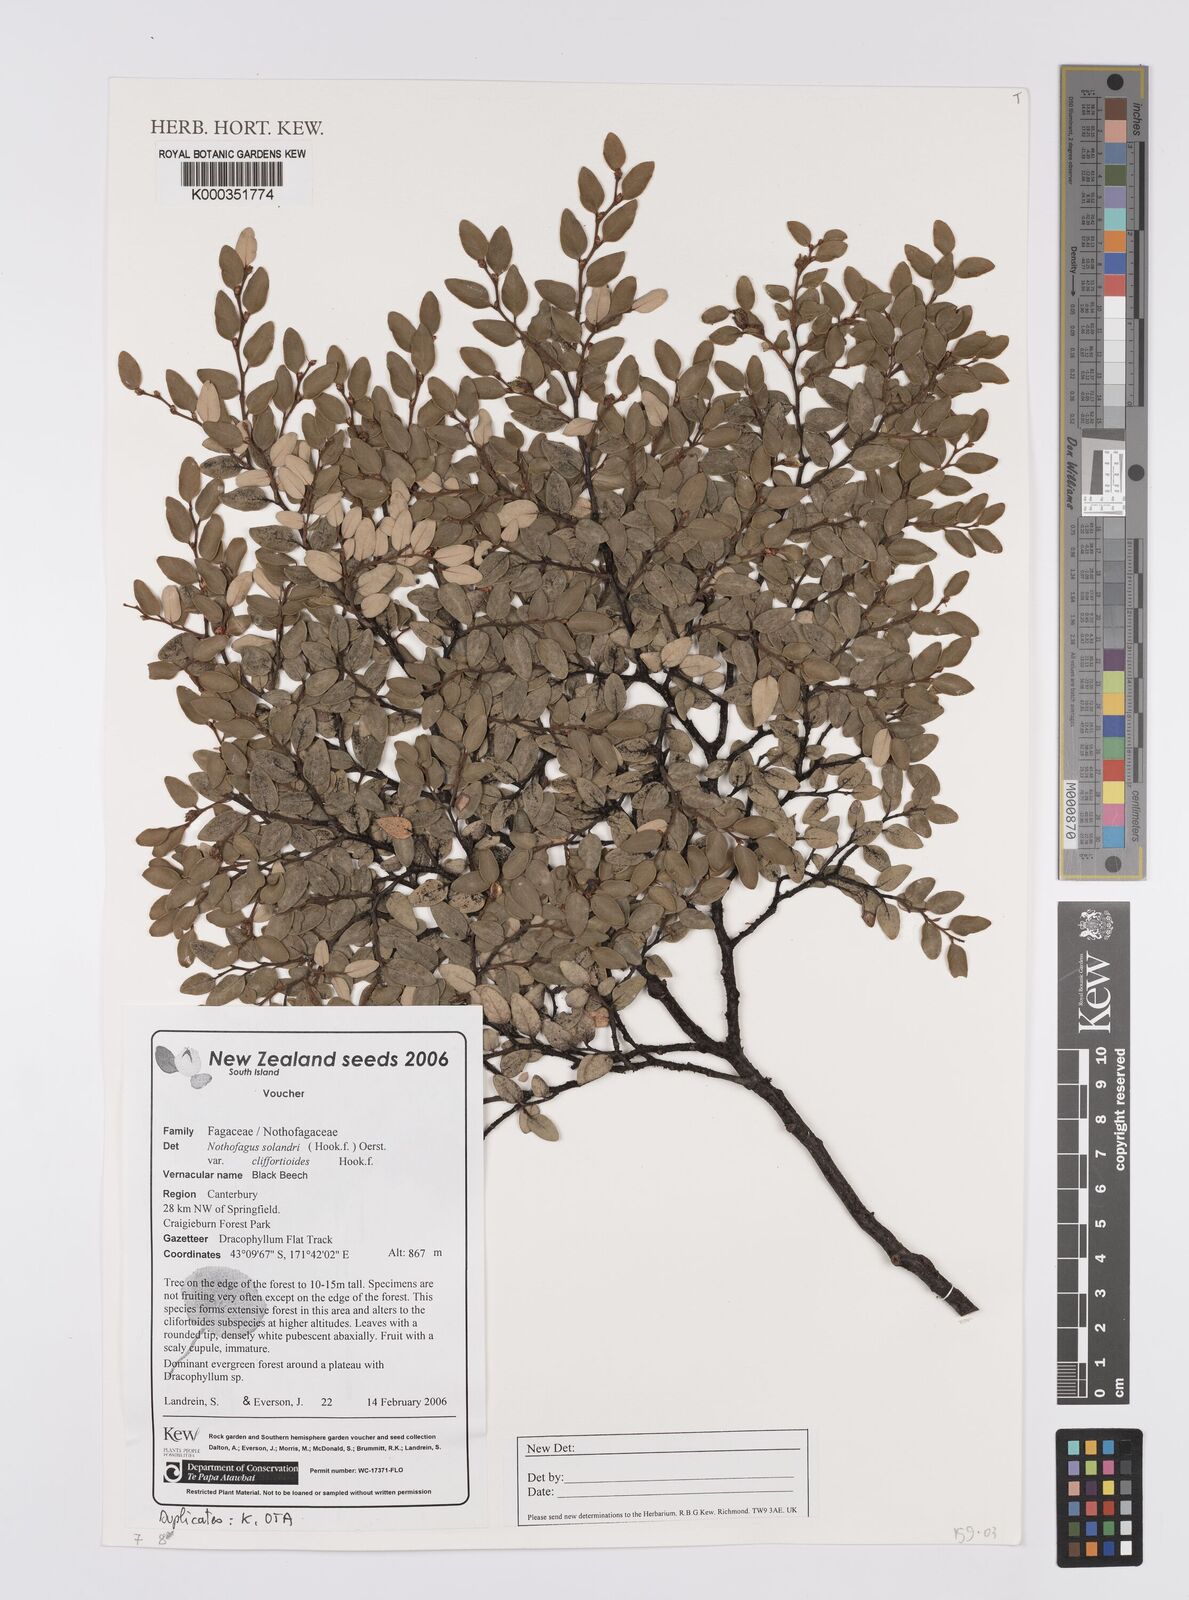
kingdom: Plantae
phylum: Tracheophyta
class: Magnoliopsida
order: Fagales
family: Nothofagaceae
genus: Nothofagus
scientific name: Nothofagus solandri
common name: Black beech
